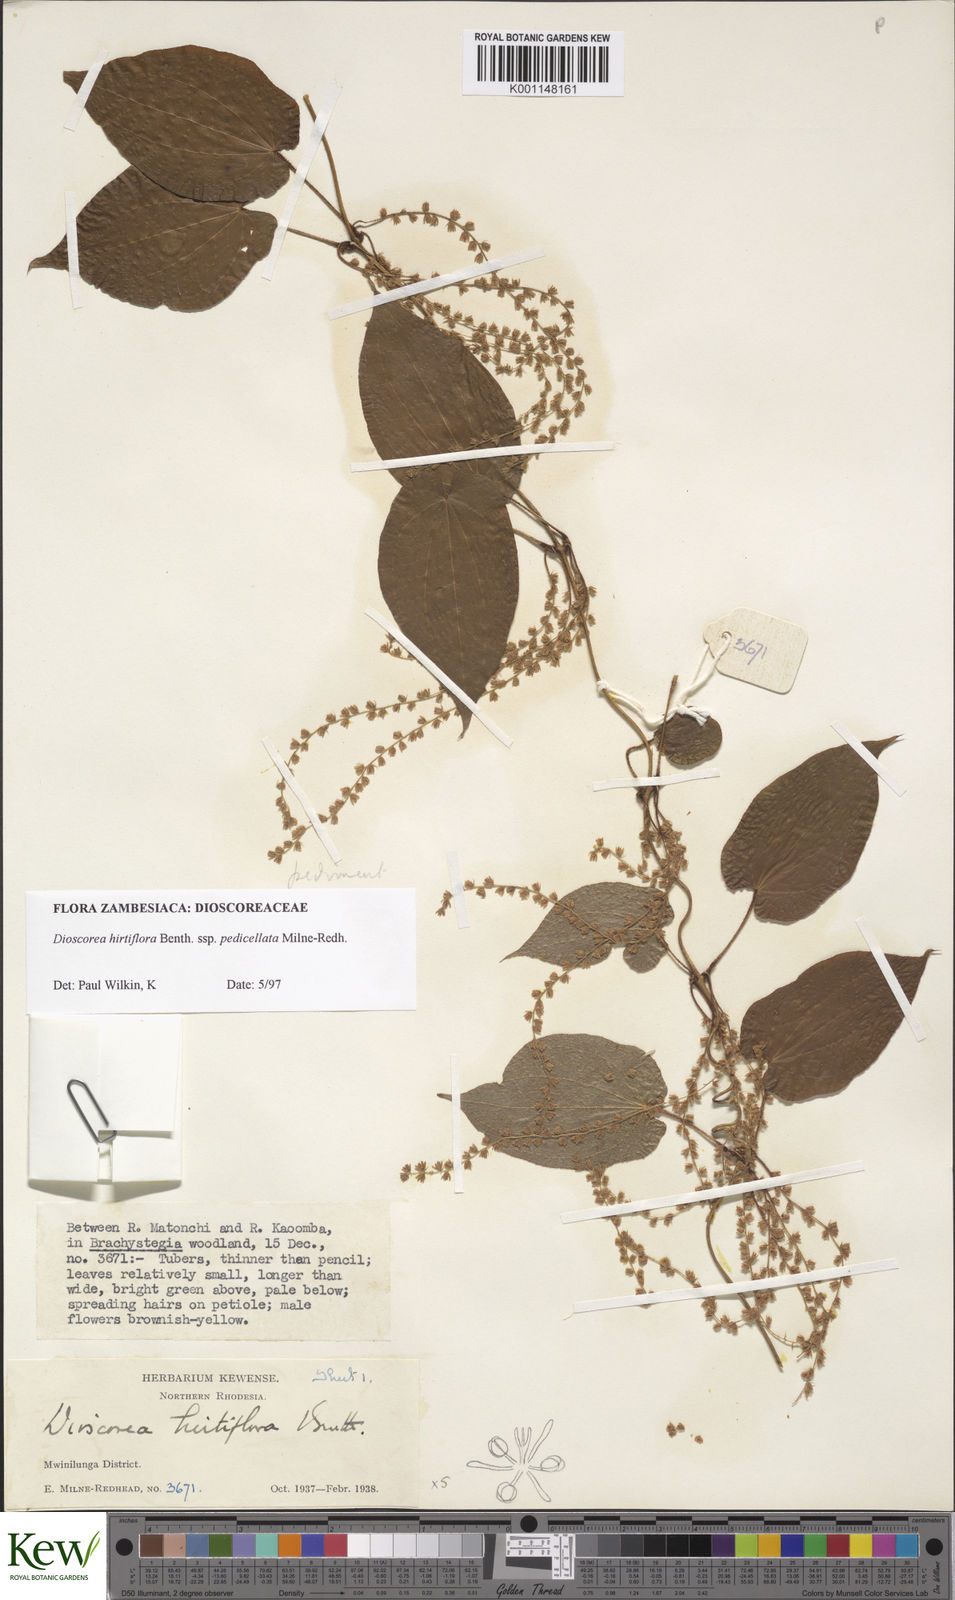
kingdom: Plantae
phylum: Tracheophyta
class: Liliopsida
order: Dioscoreales
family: Dioscoreaceae
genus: Dioscorea
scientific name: Dioscorea hirtiflora
